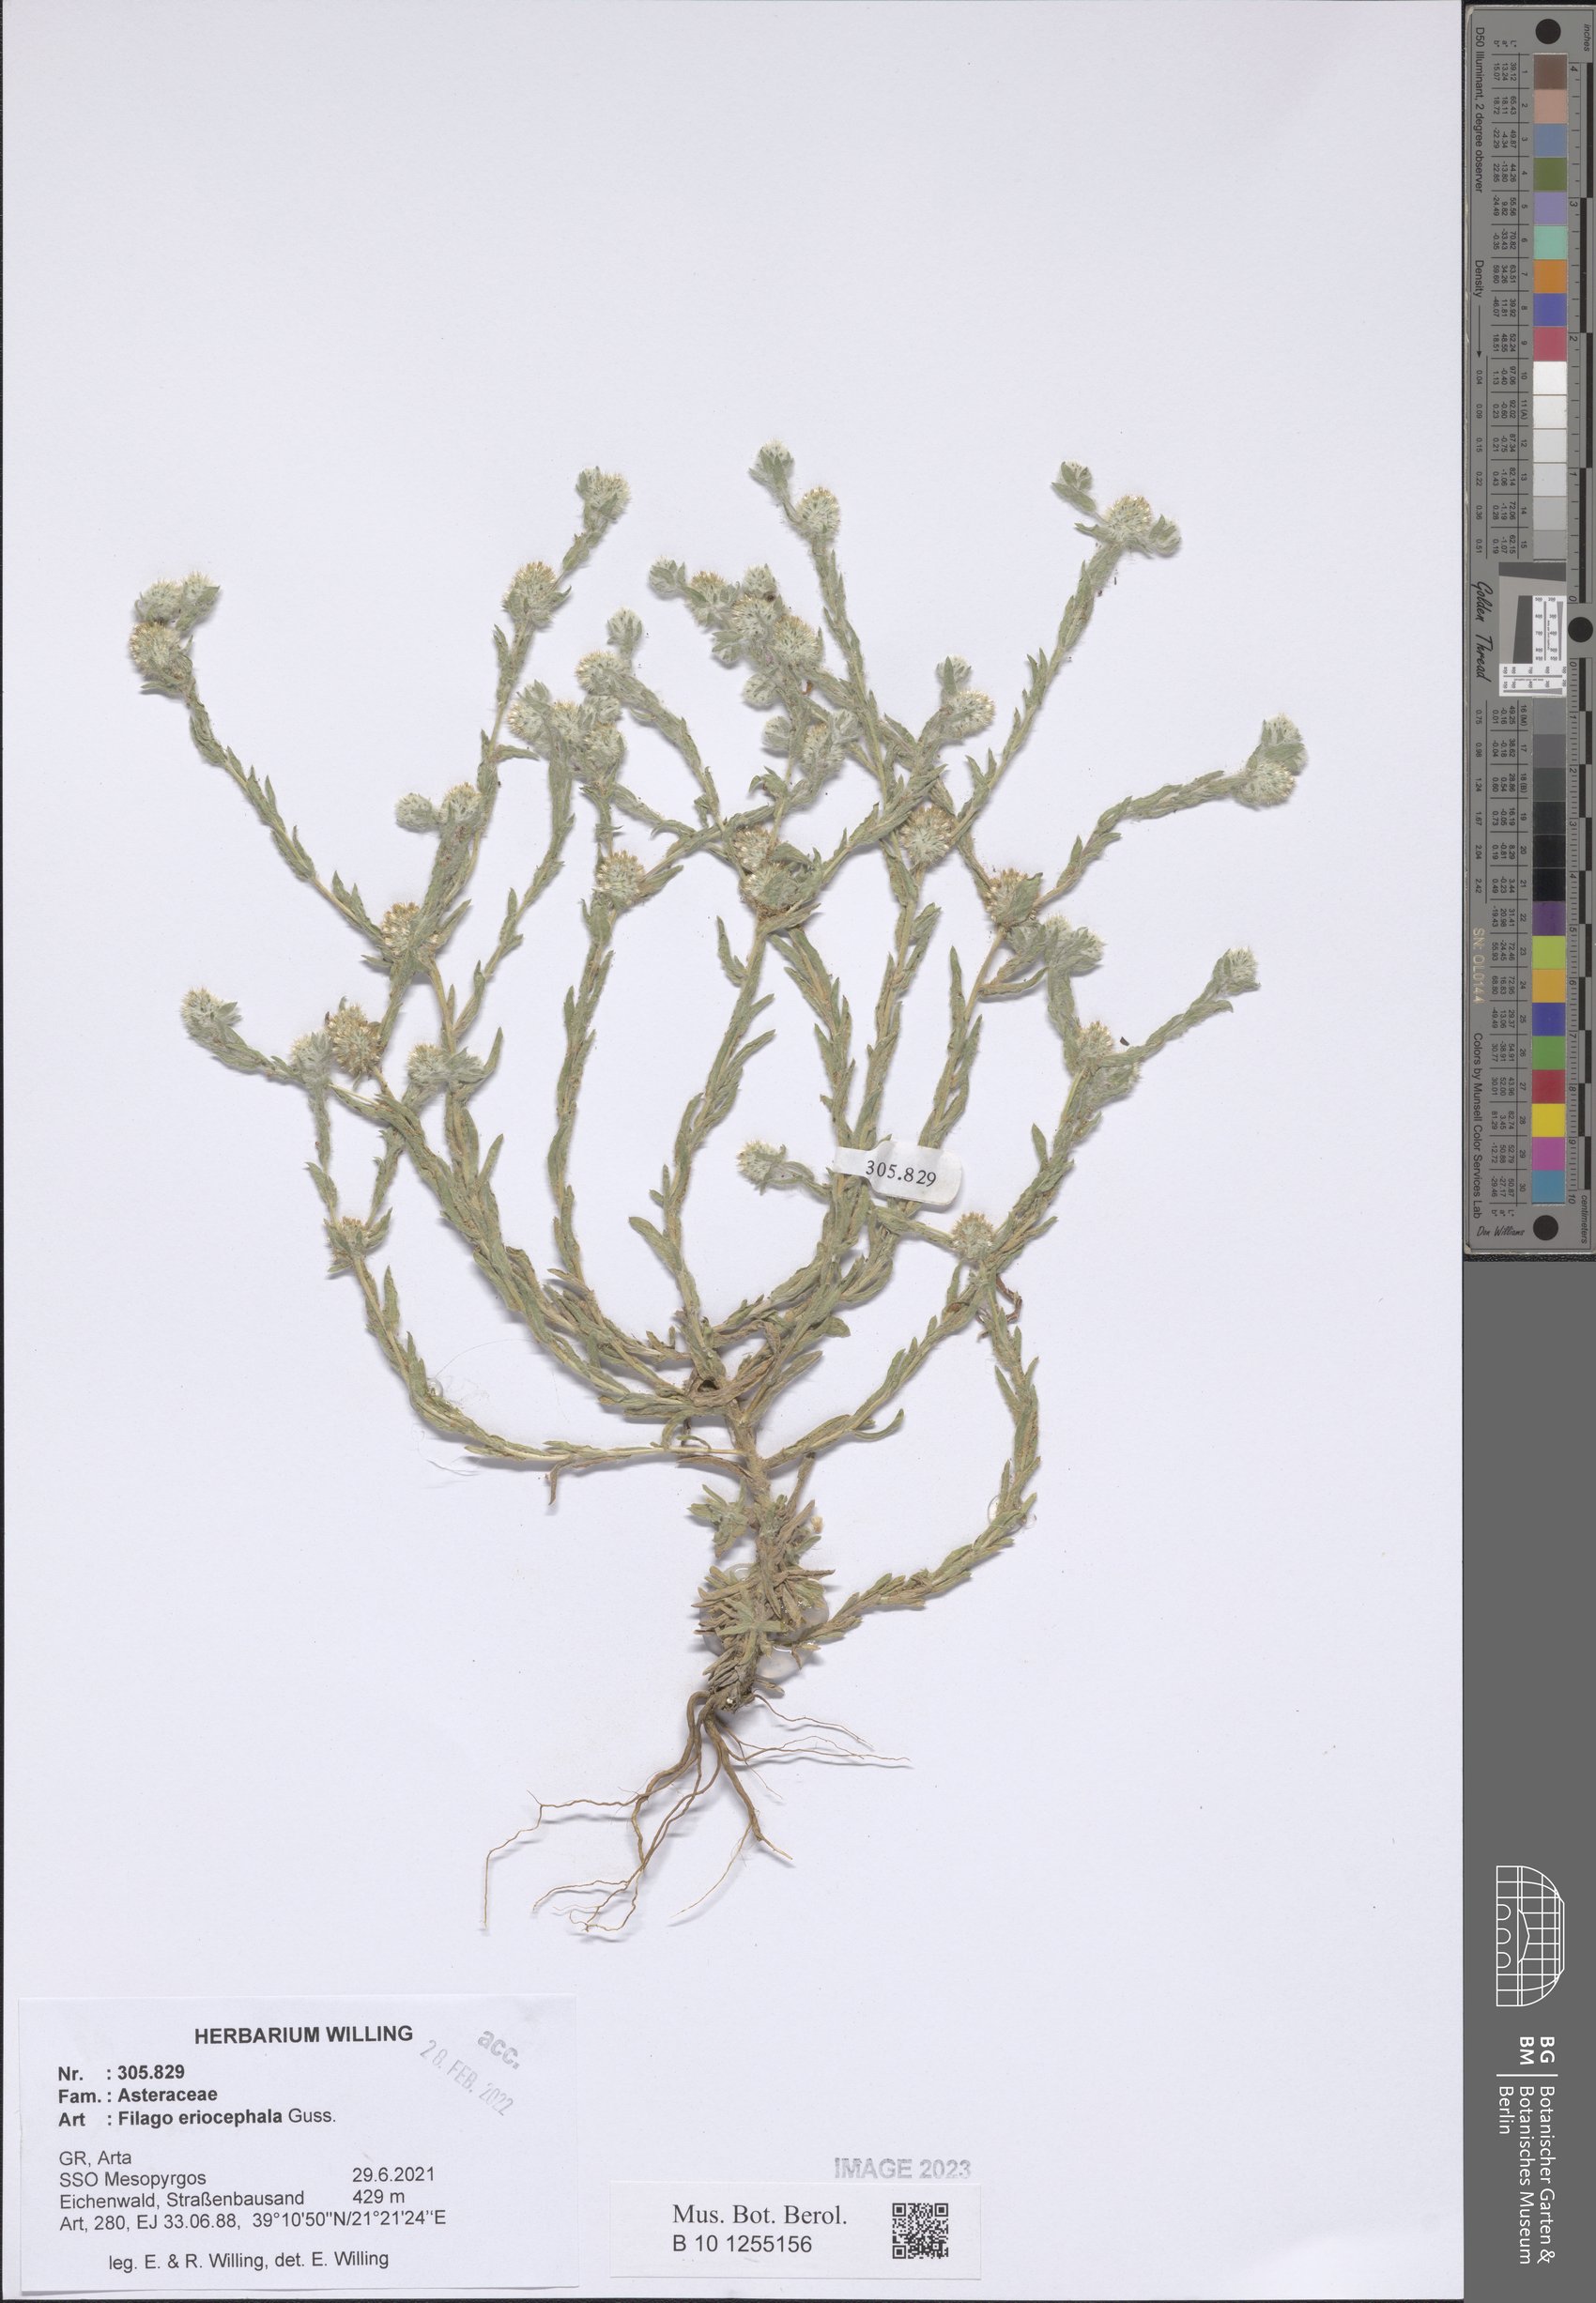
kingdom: Plantae
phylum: Tracheophyta
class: Magnoliopsida
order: Asterales
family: Asteraceae
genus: Filago
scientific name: Filago eriocephala
